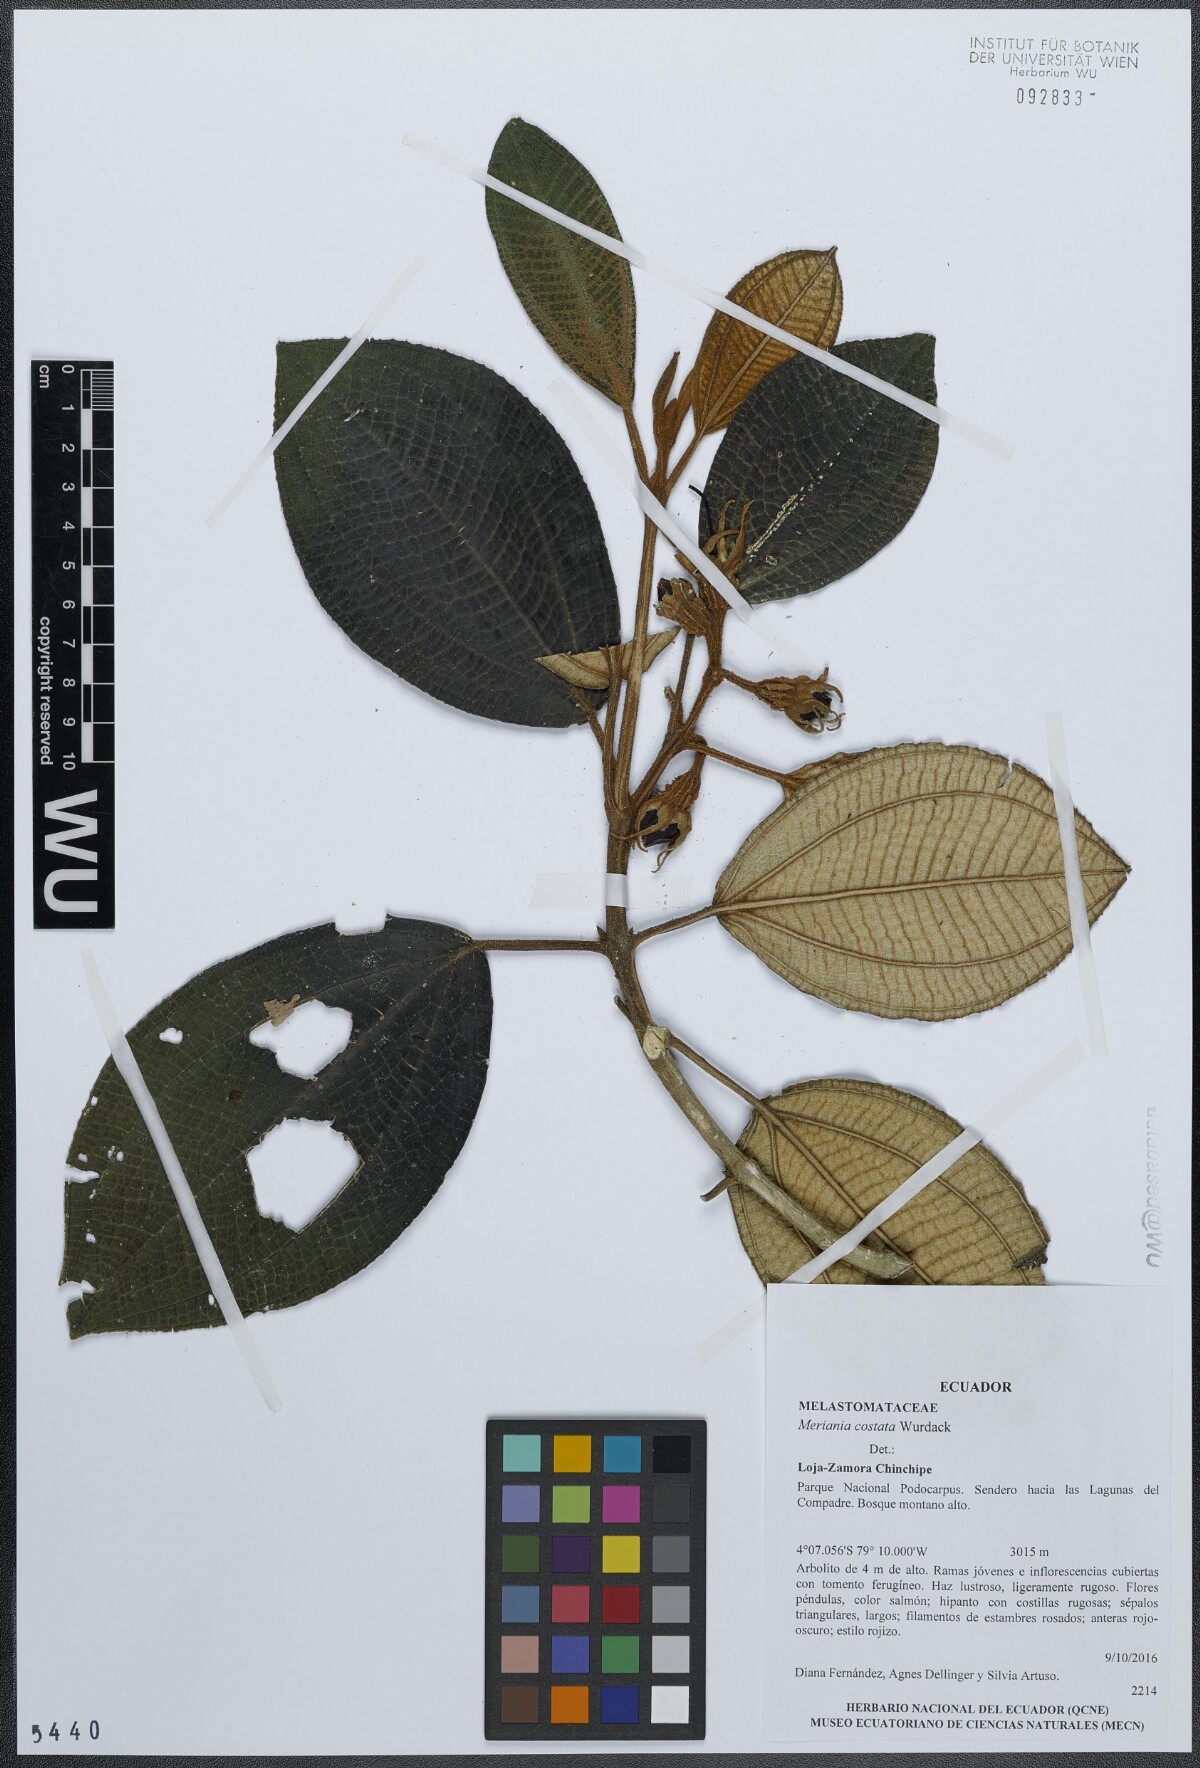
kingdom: Plantae
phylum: Tracheophyta
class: Magnoliopsida
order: Myrtales
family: Melastomataceae
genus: Meriania
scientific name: Meriania costata
